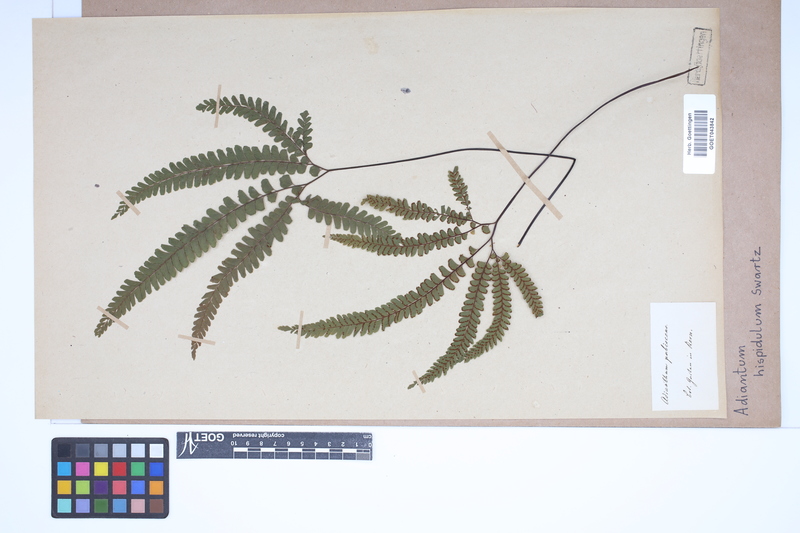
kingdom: Plantae
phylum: Tracheophyta
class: Polypodiopsida
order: Polypodiales
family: Pteridaceae
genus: Adiantum
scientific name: Adiantum hispidulum
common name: Rough maidenhair
